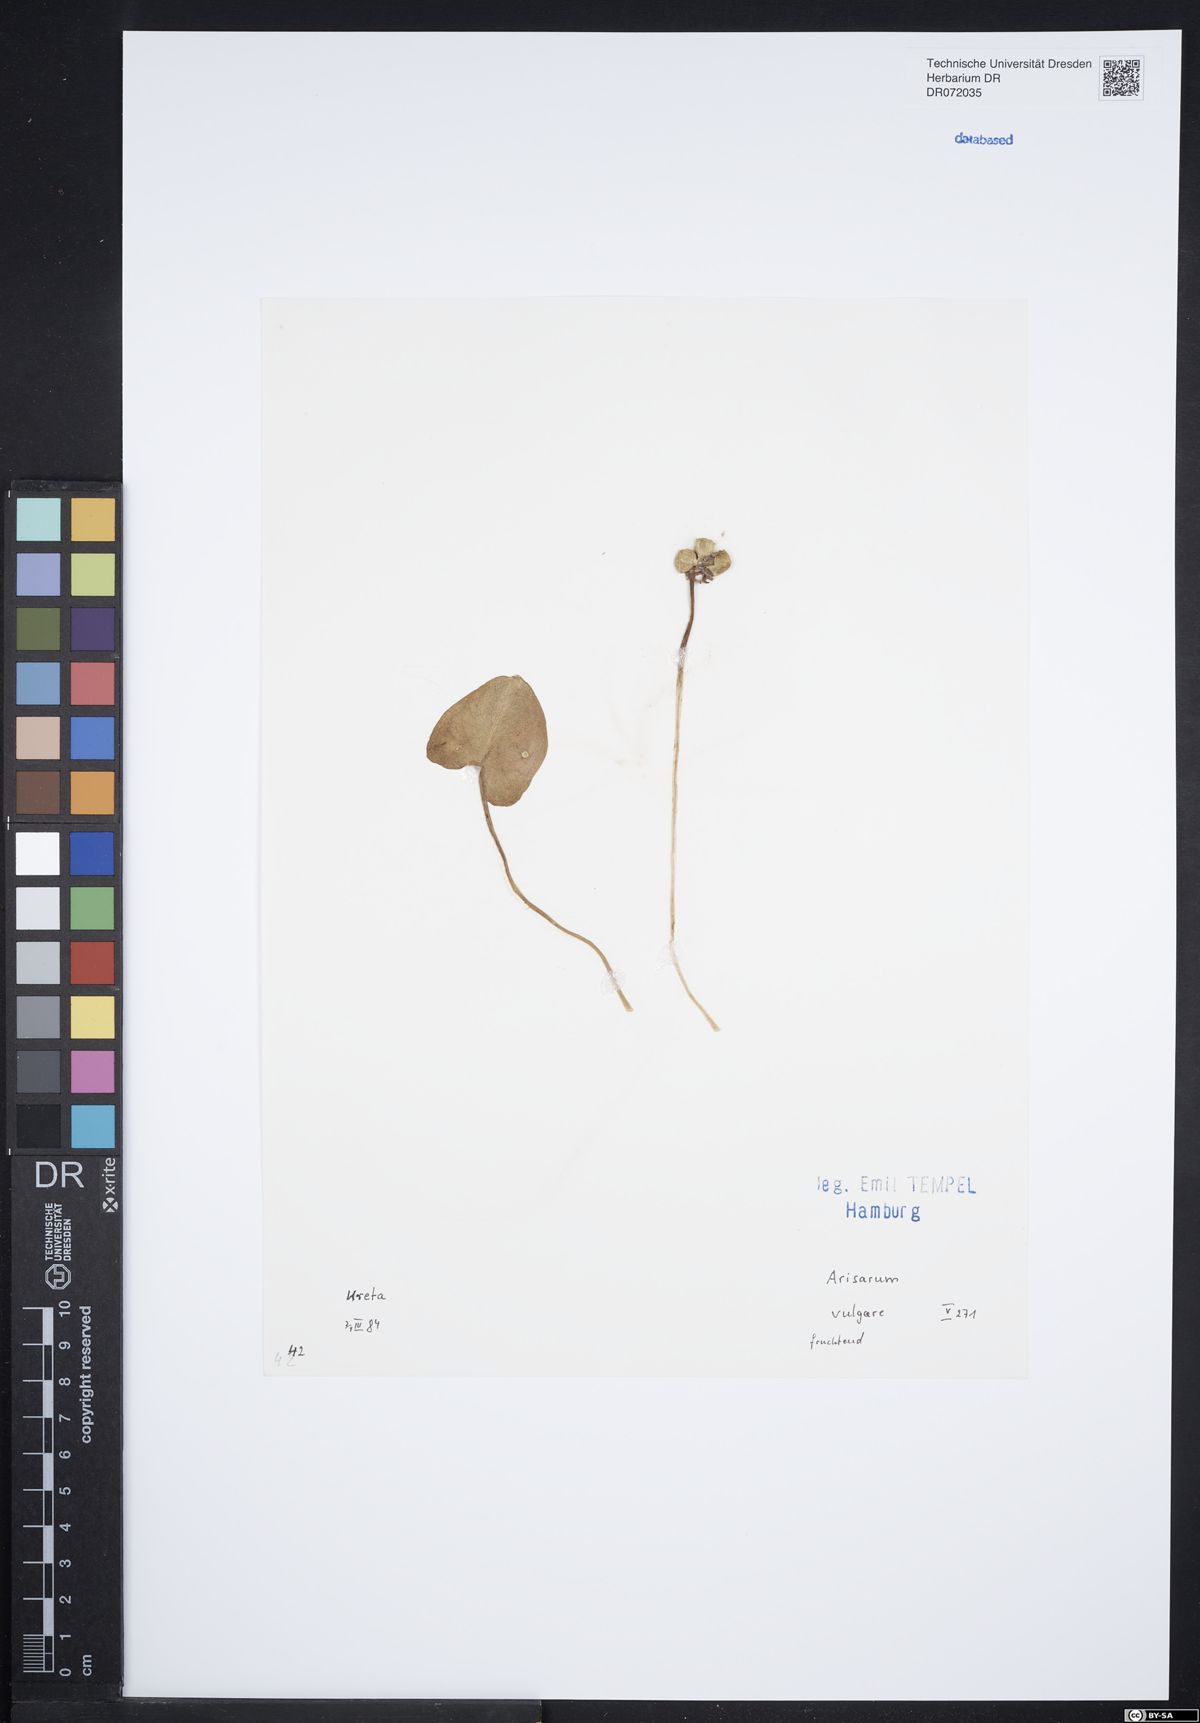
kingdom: Plantae
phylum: Tracheophyta
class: Liliopsida
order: Alismatales
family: Araceae
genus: Arisarum
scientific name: Arisarum vulgare
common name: Common arisarum
